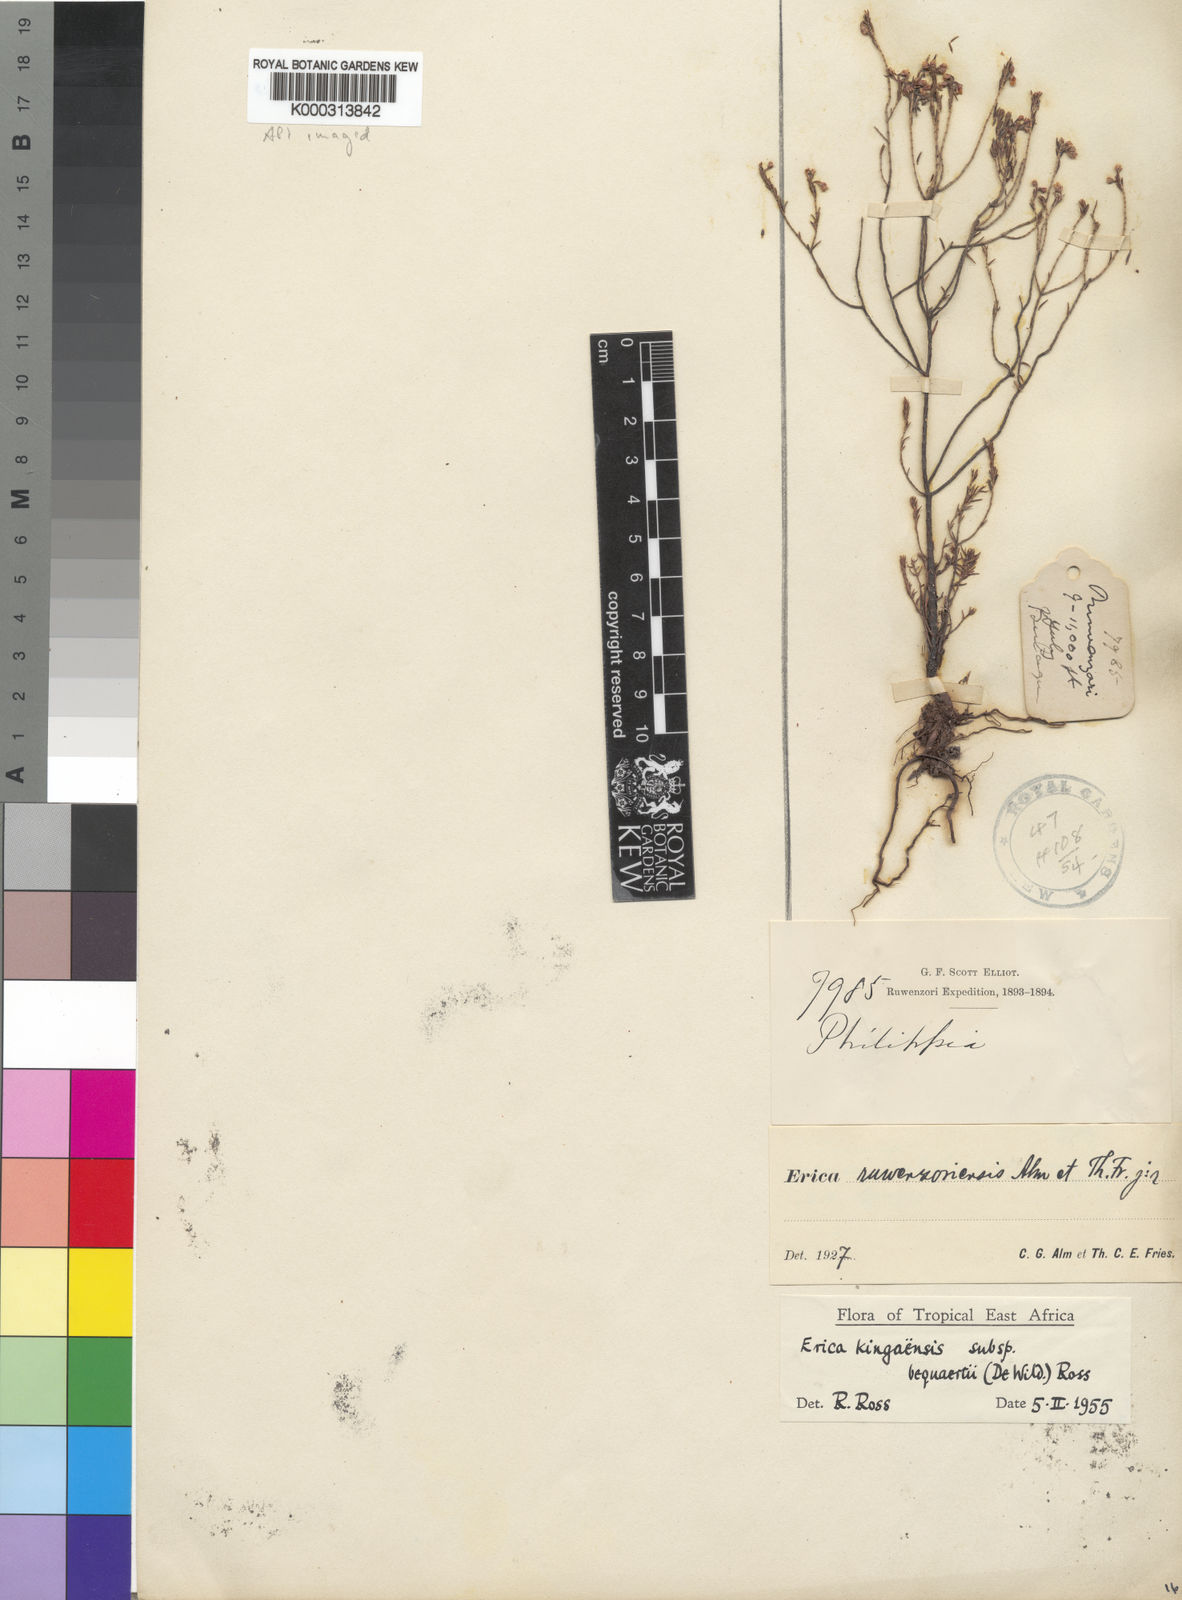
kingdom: Plantae
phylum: Tracheophyta
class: Magnoliopsida
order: Ericales
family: Ericaceae
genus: Erica
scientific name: Erica kingaensis
